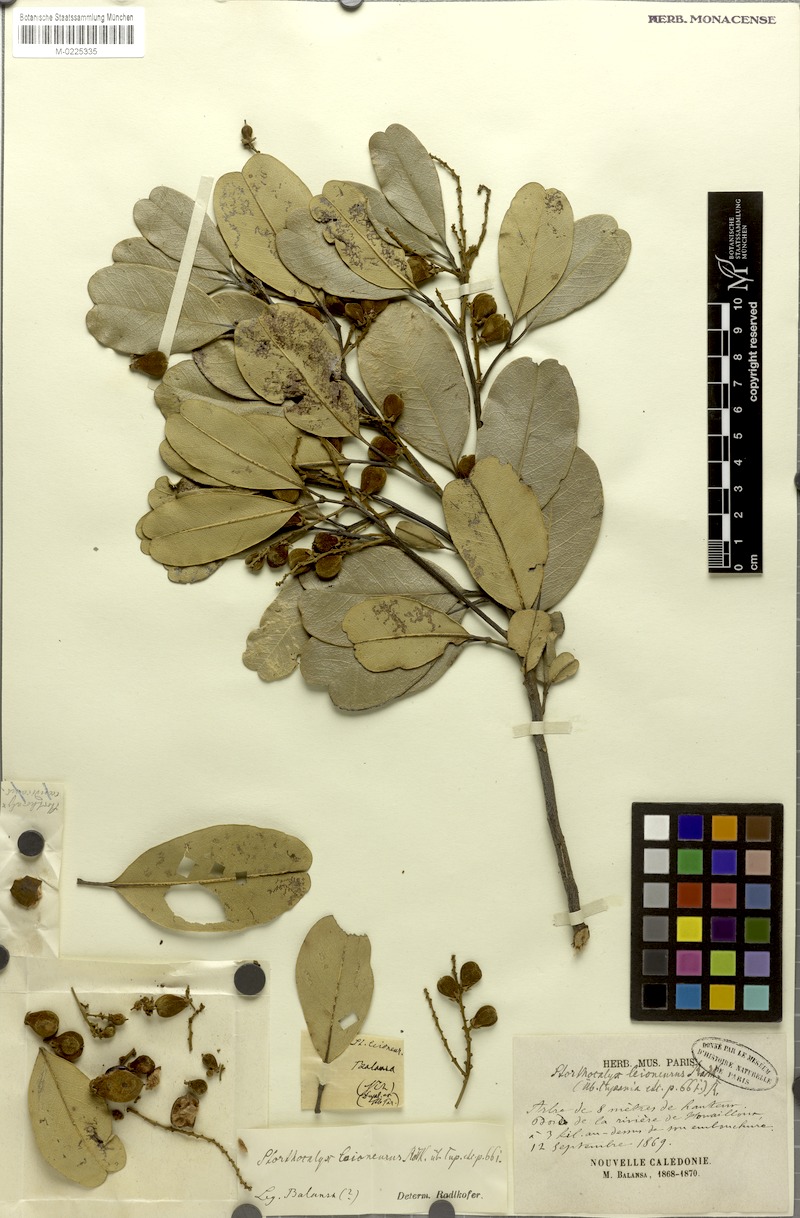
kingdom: Plantae
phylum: Tracheophyta
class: Magnoliopsida
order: Sapindales
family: Sapindaceae
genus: Storthocalyx
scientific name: Storthocalyx leioneurus
